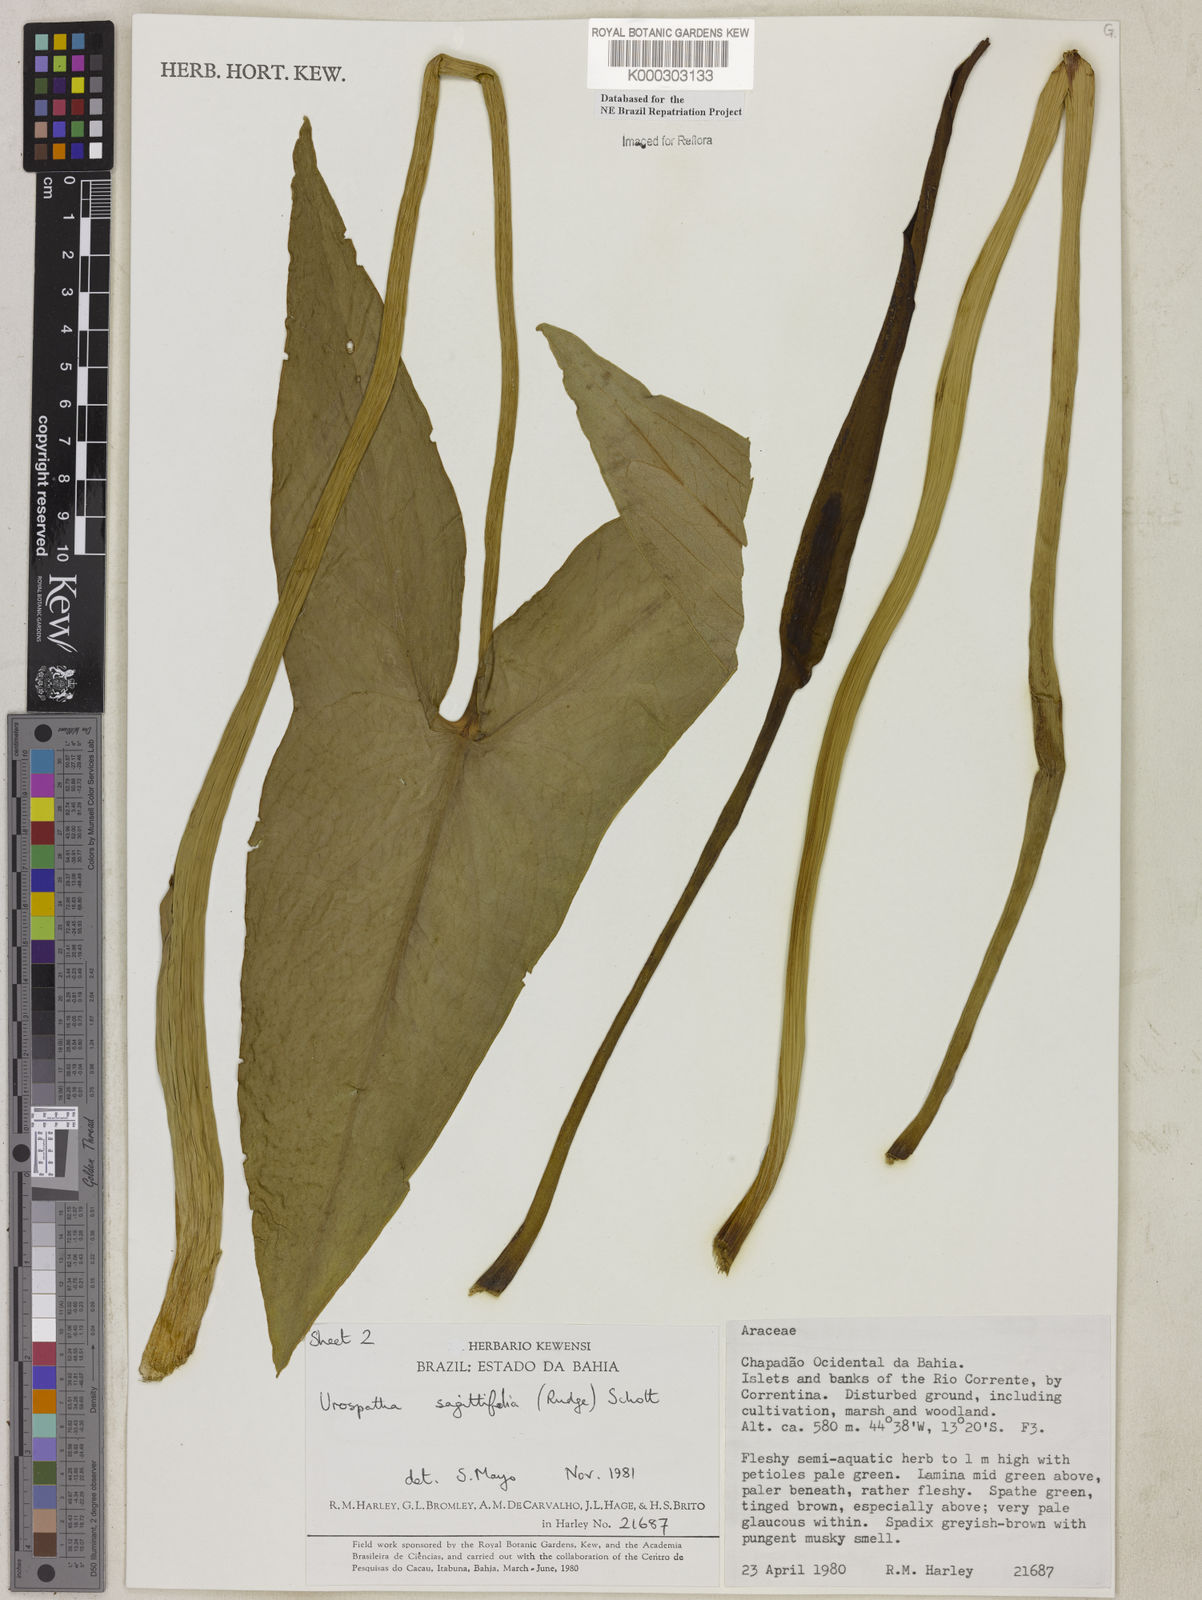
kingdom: Plantae
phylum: Tracheophyta
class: Liliopsida
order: Alismatales
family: Araceae
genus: Urospatha
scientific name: Urospatha sagittifolia
